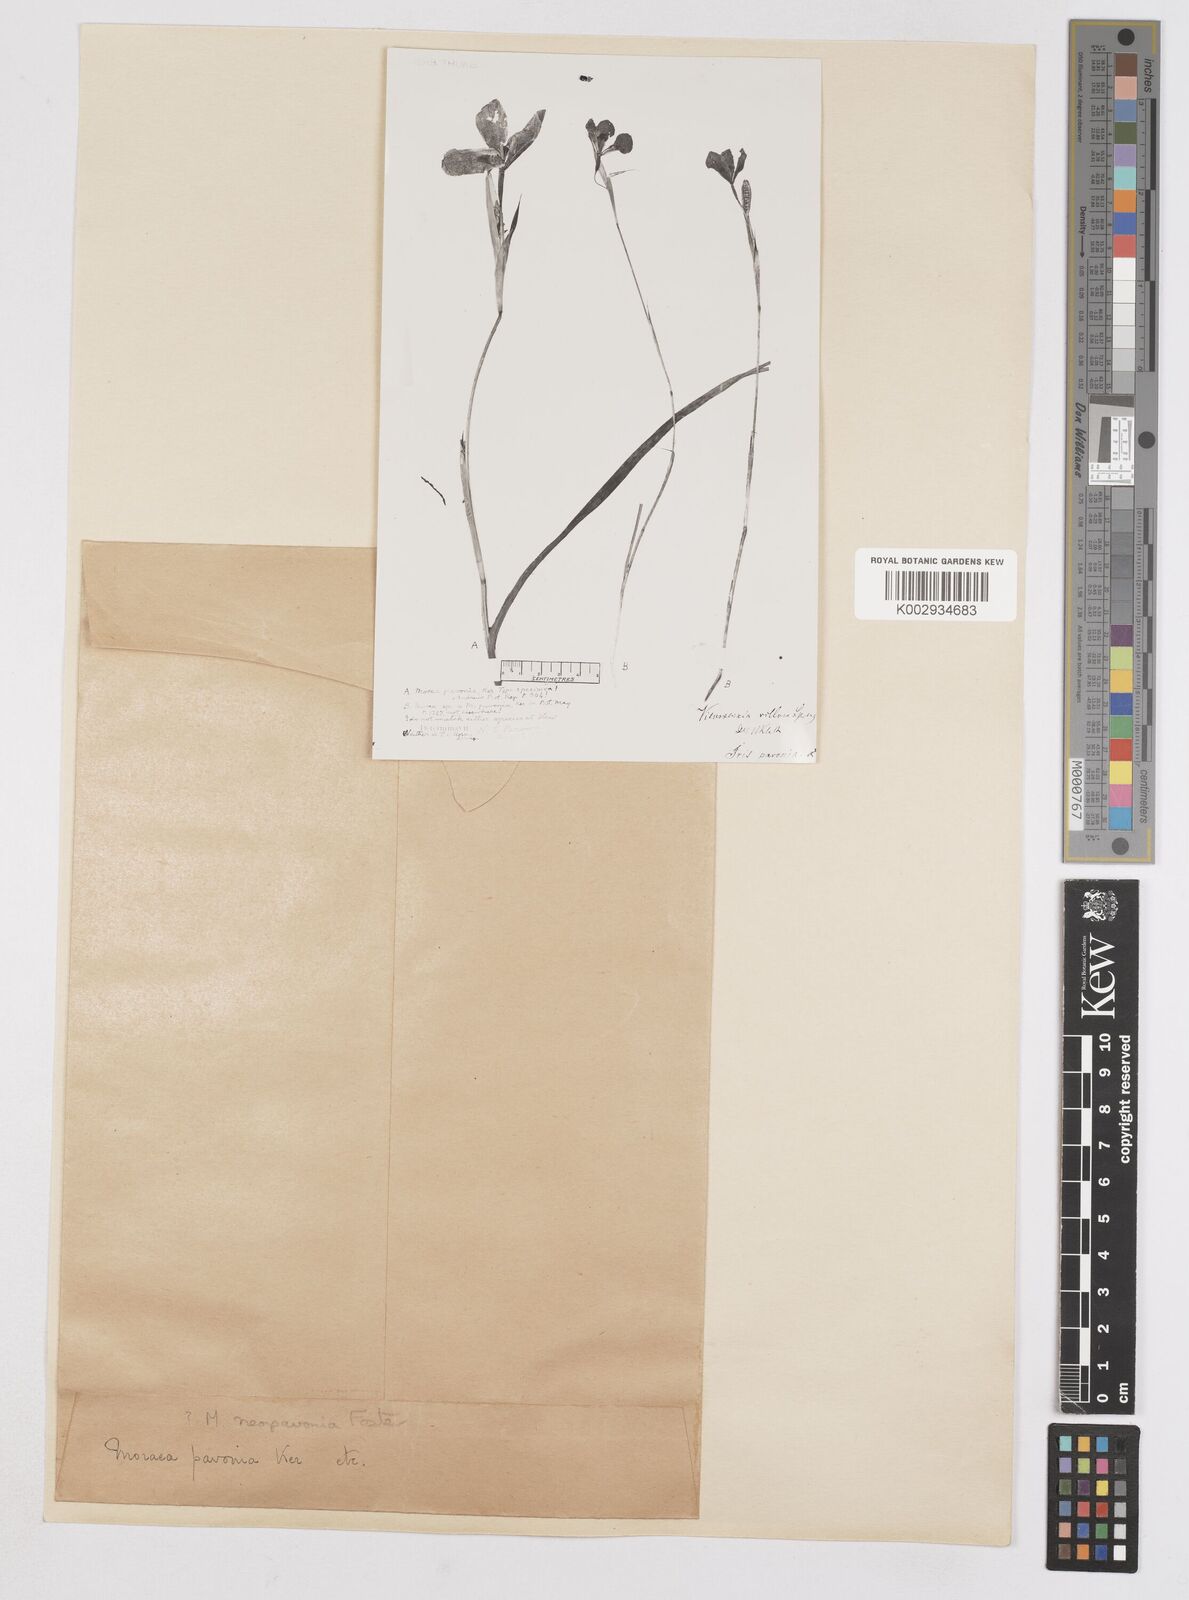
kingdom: Plantae
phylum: Tracheophyta
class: Liliopsida
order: Asparagales
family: Iridaceae
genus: Moraea
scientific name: Moraea tulbaghensis
